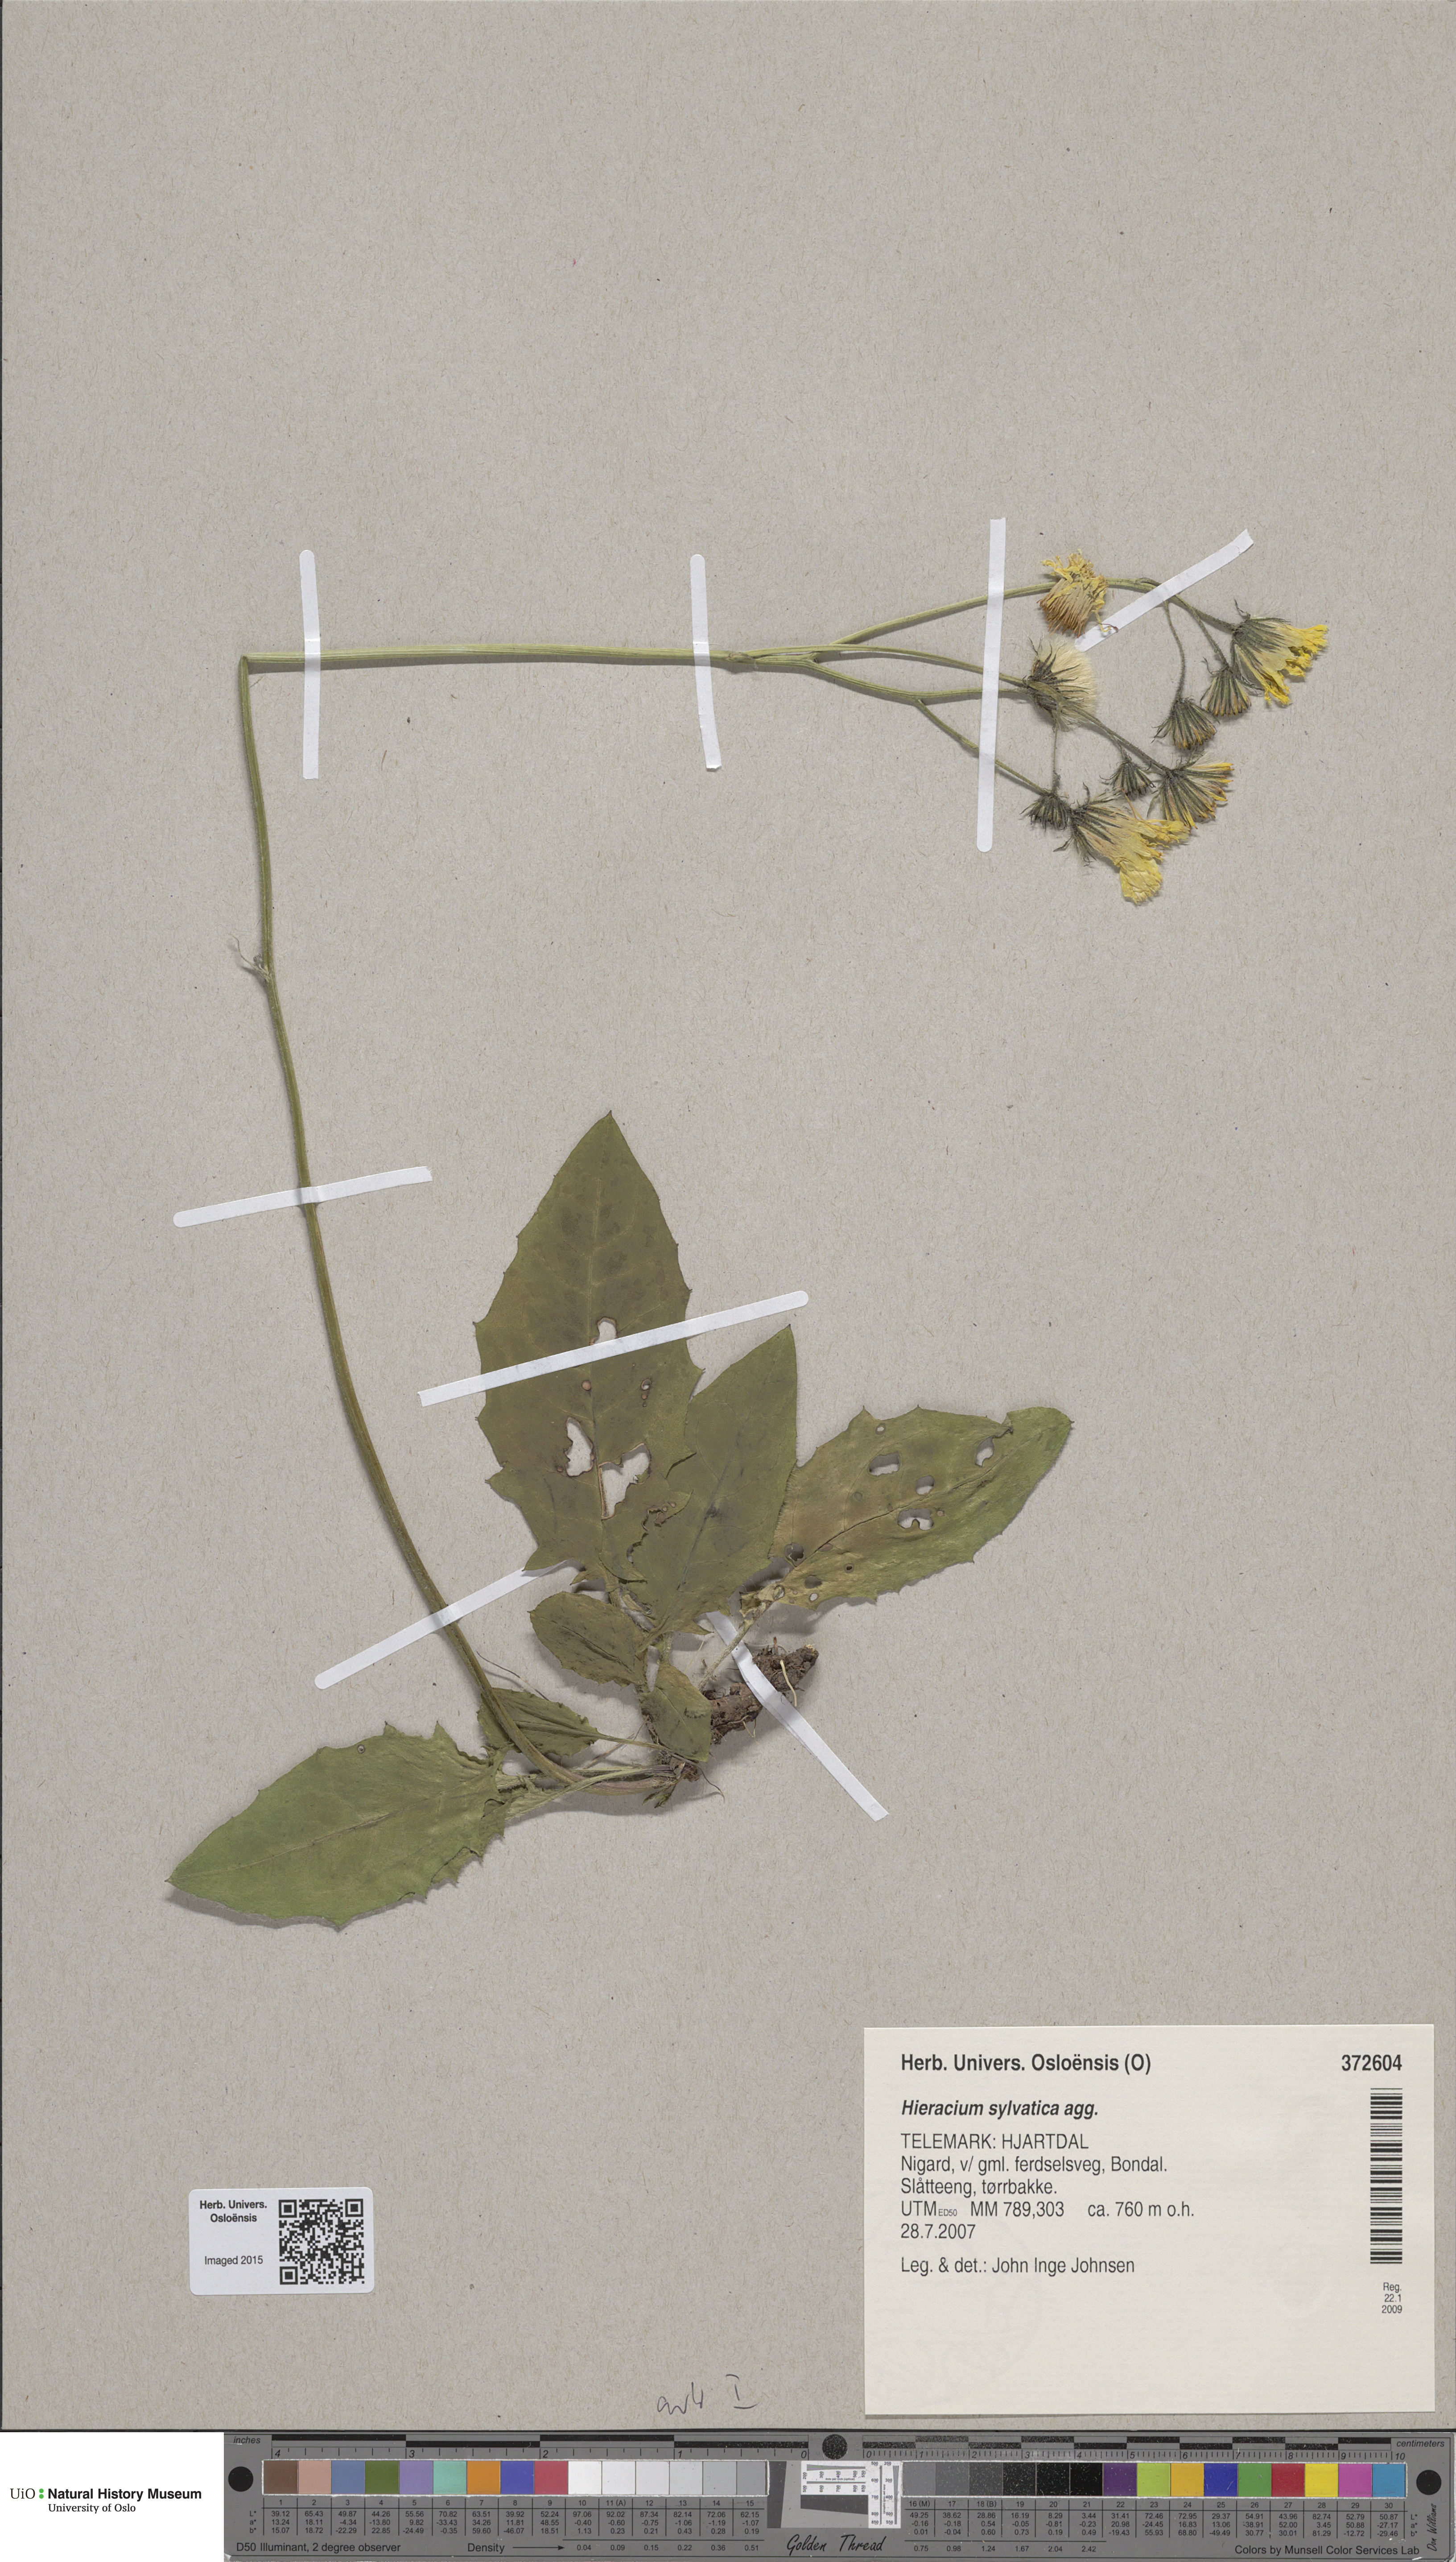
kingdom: Plantae
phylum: Tracheophyta
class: Magnoliopsida
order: Asterales
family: Asteraceae
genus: Hieracium
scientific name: Hieracium
